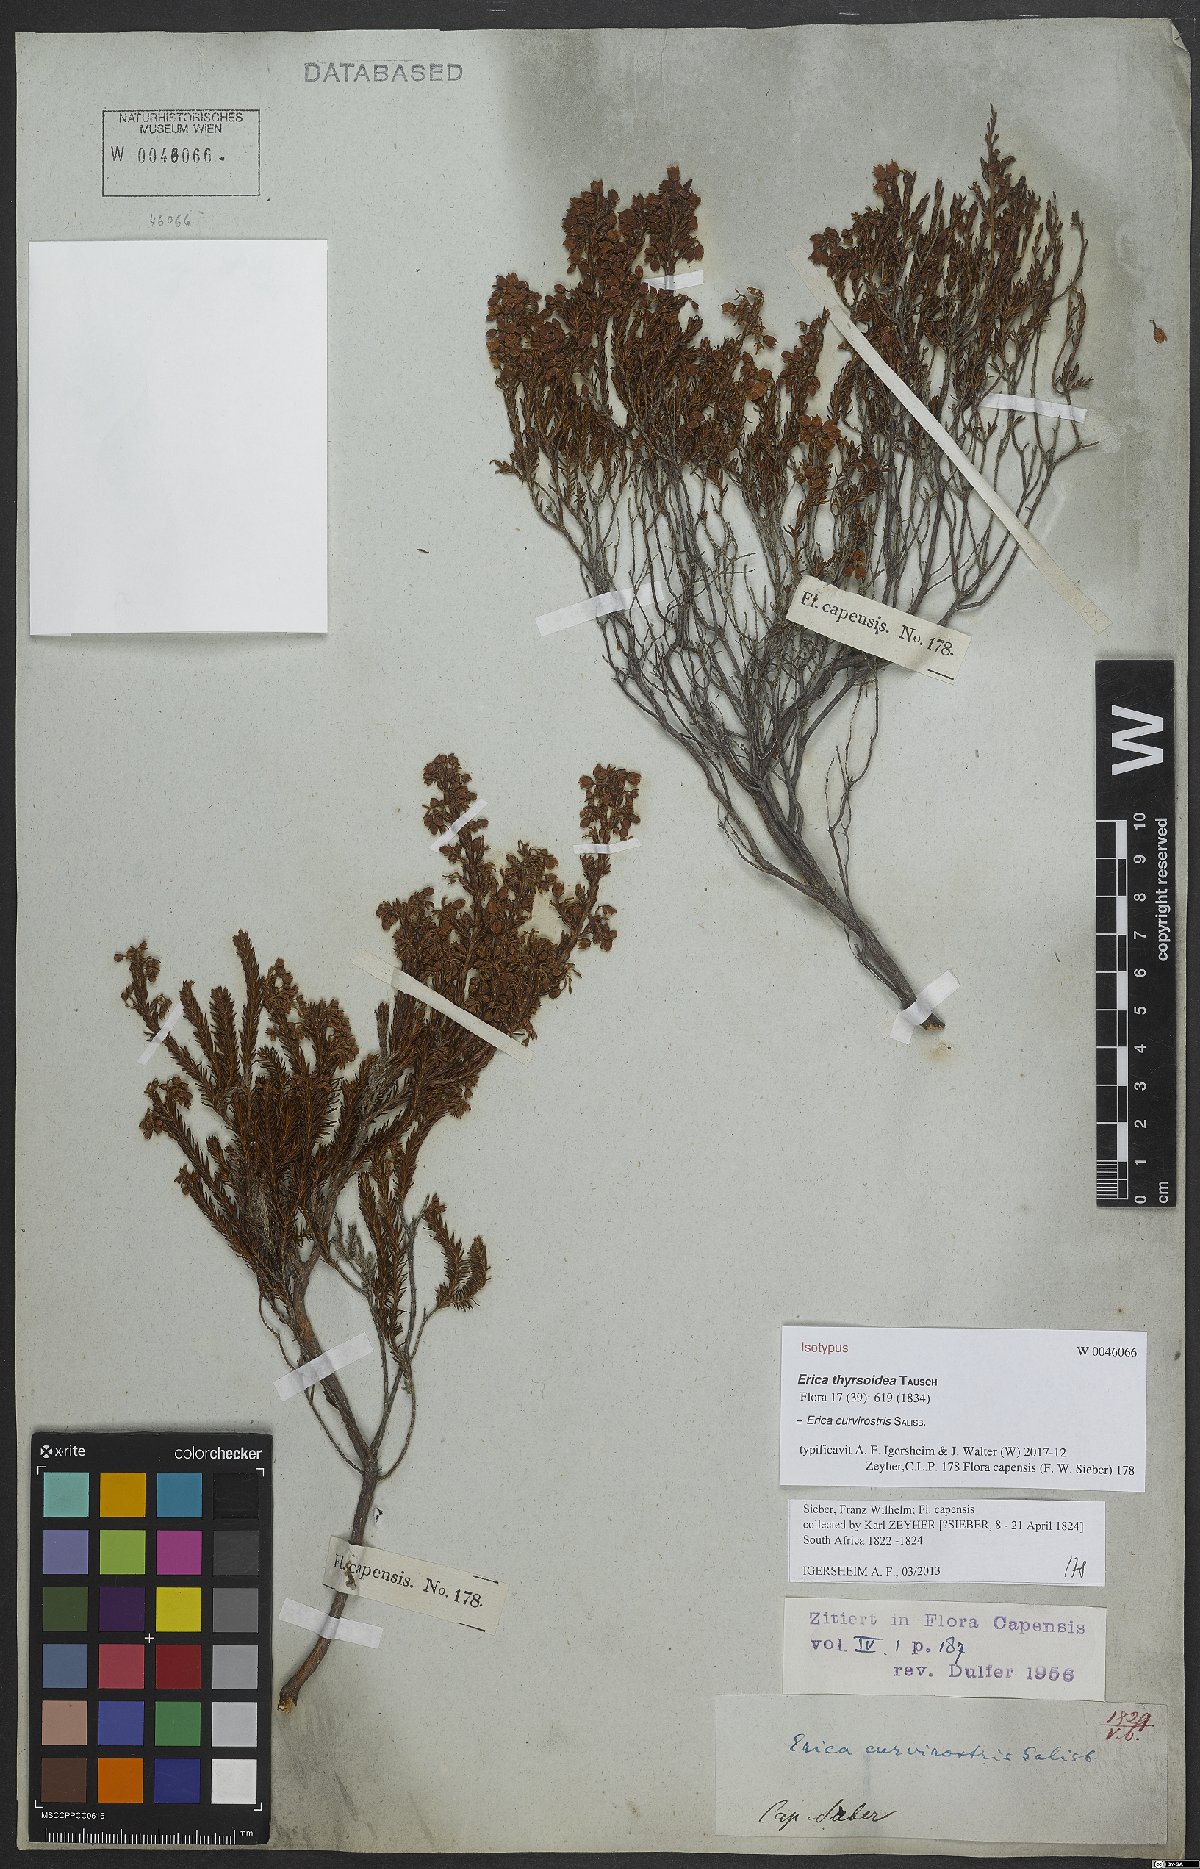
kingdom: Plantae
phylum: Tracheophyta
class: Magnoliopsida
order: Ericales
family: Ericaceae
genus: Erica
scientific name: Erica curvirostris
